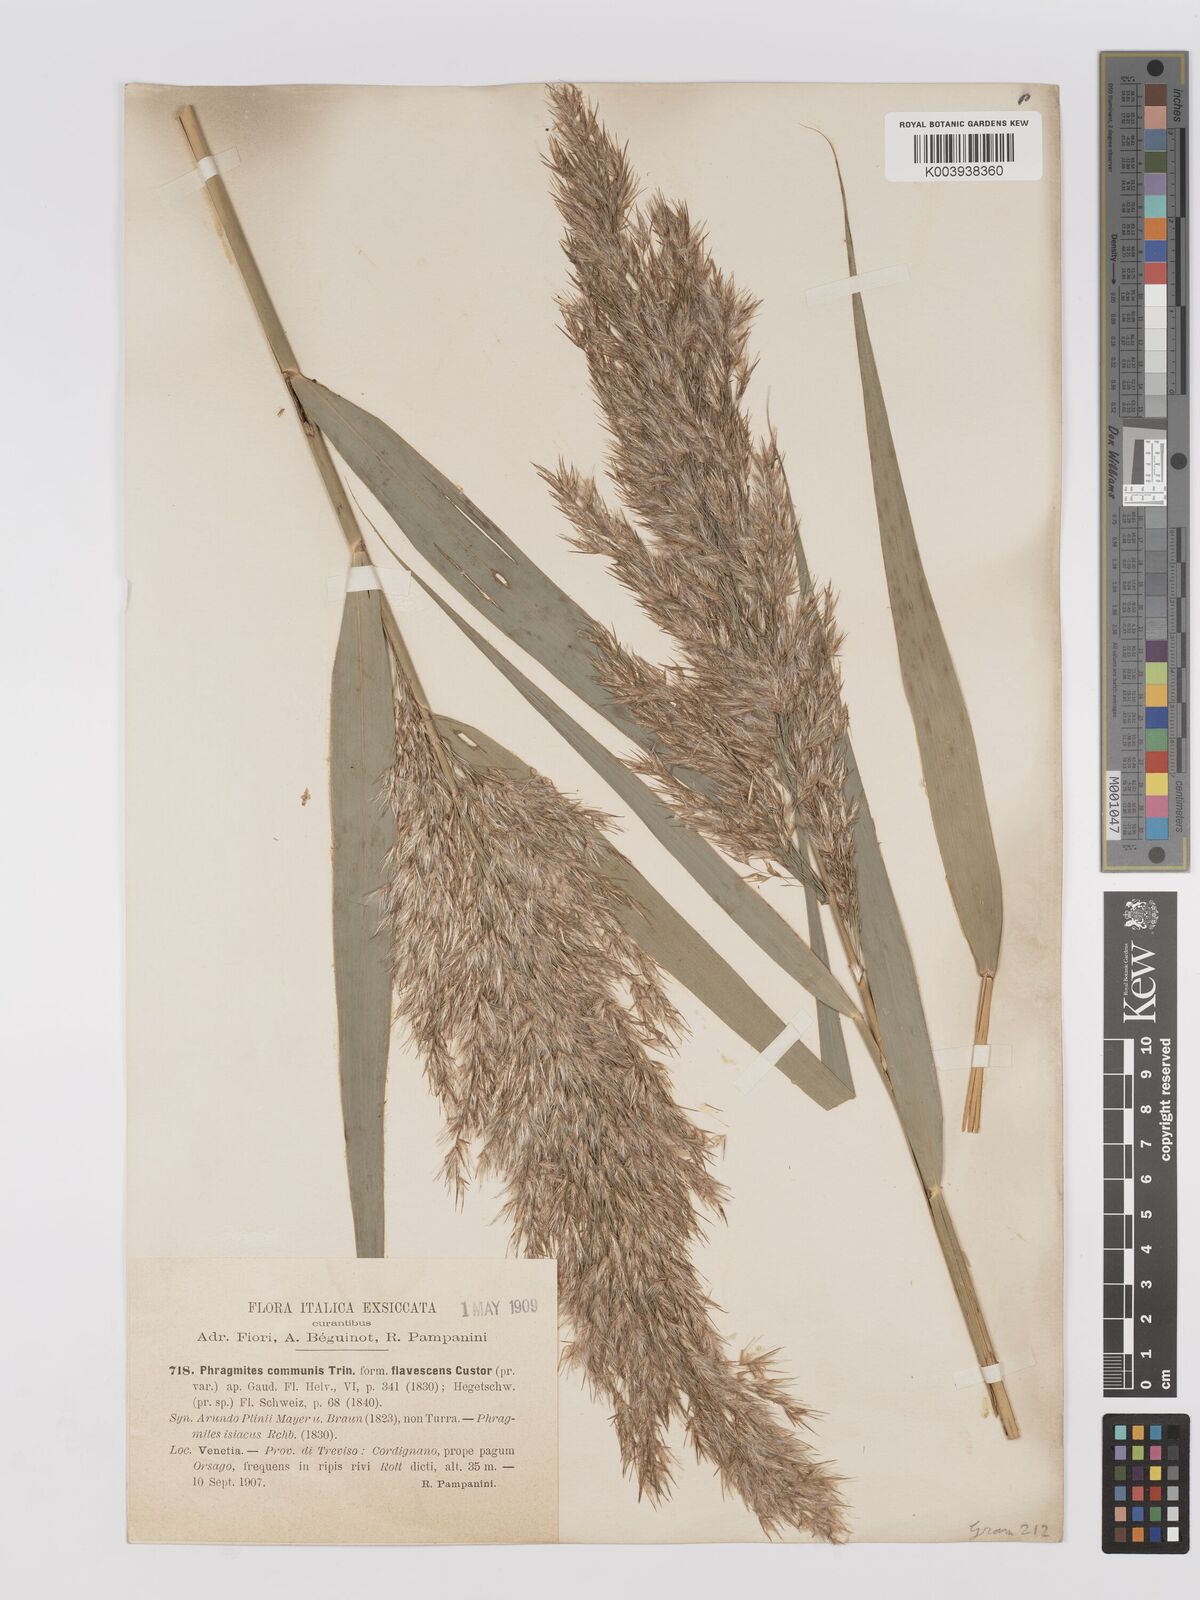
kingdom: Plantae
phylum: Tracheophyta
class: Liliopsida
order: Poales
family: Poaceae
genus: Phragmites
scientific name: Phragmites australis
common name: Common reed
